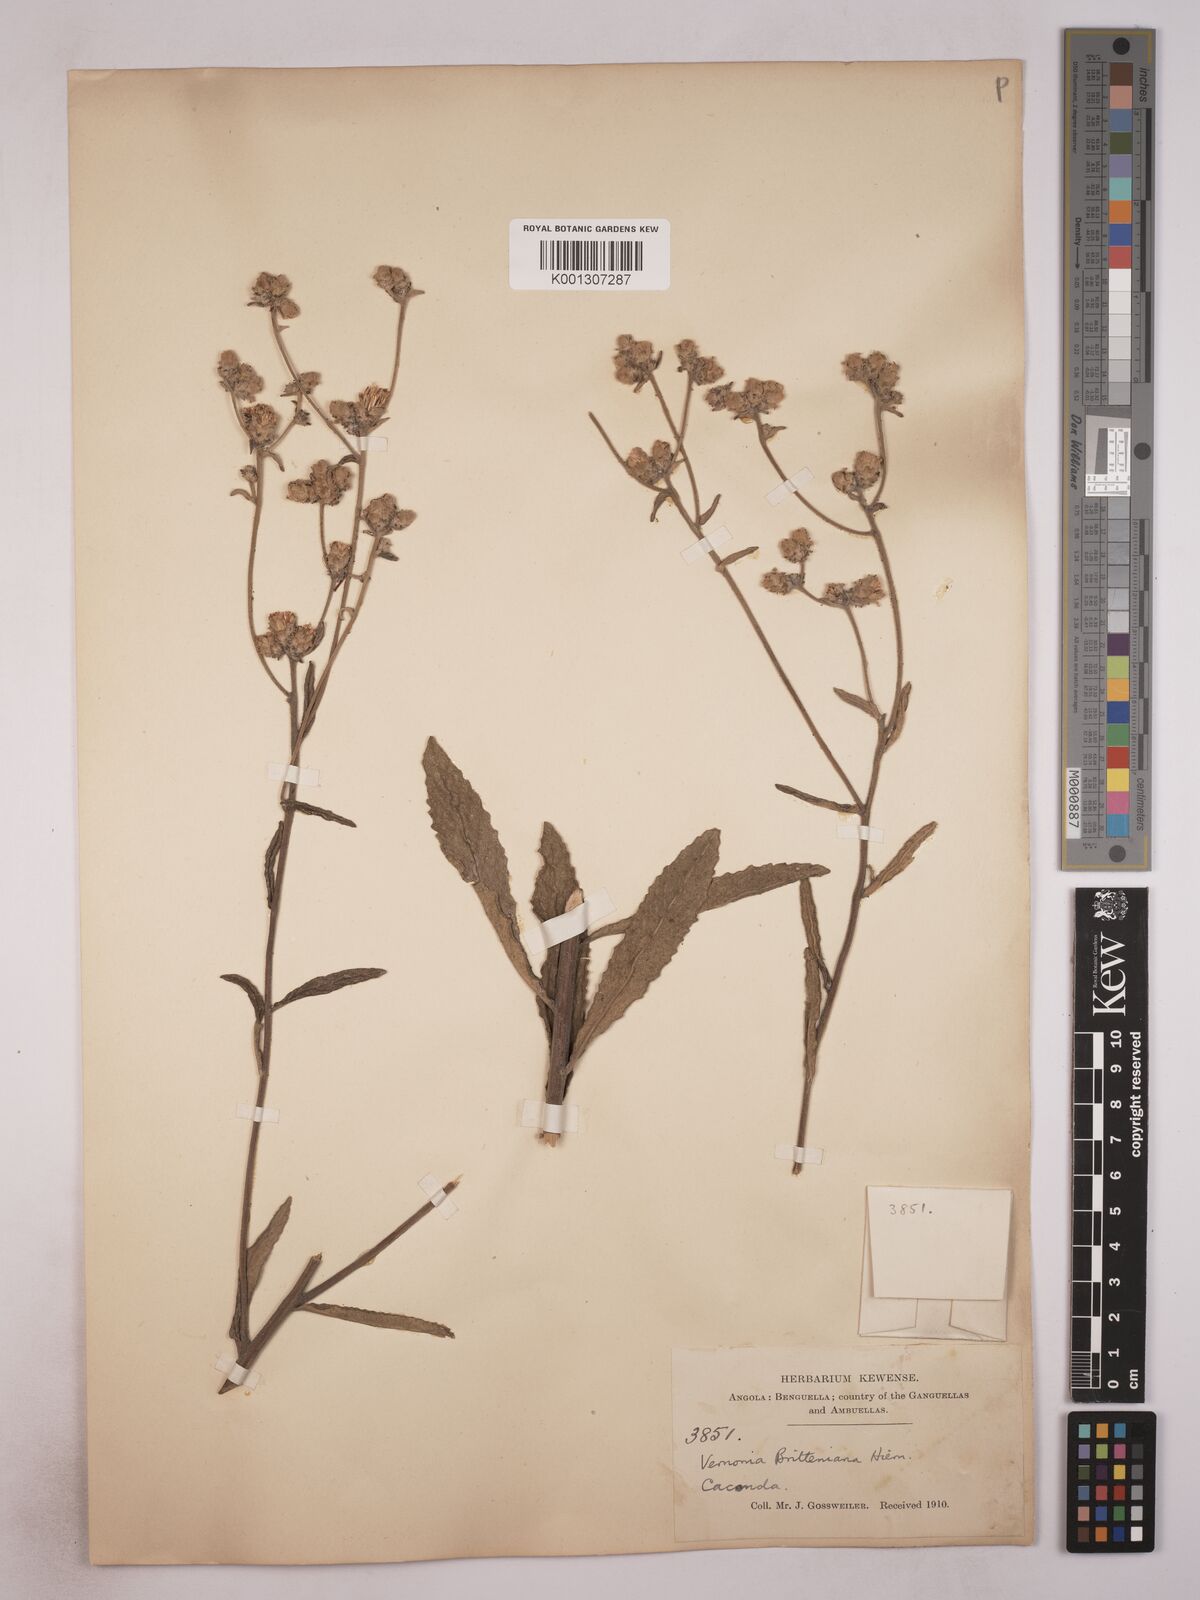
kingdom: Plantae
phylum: Tracheophyta
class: Magnoliopsida
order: Asterales
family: Asteraceae
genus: Vernonia
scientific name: Vernonia britteniana
